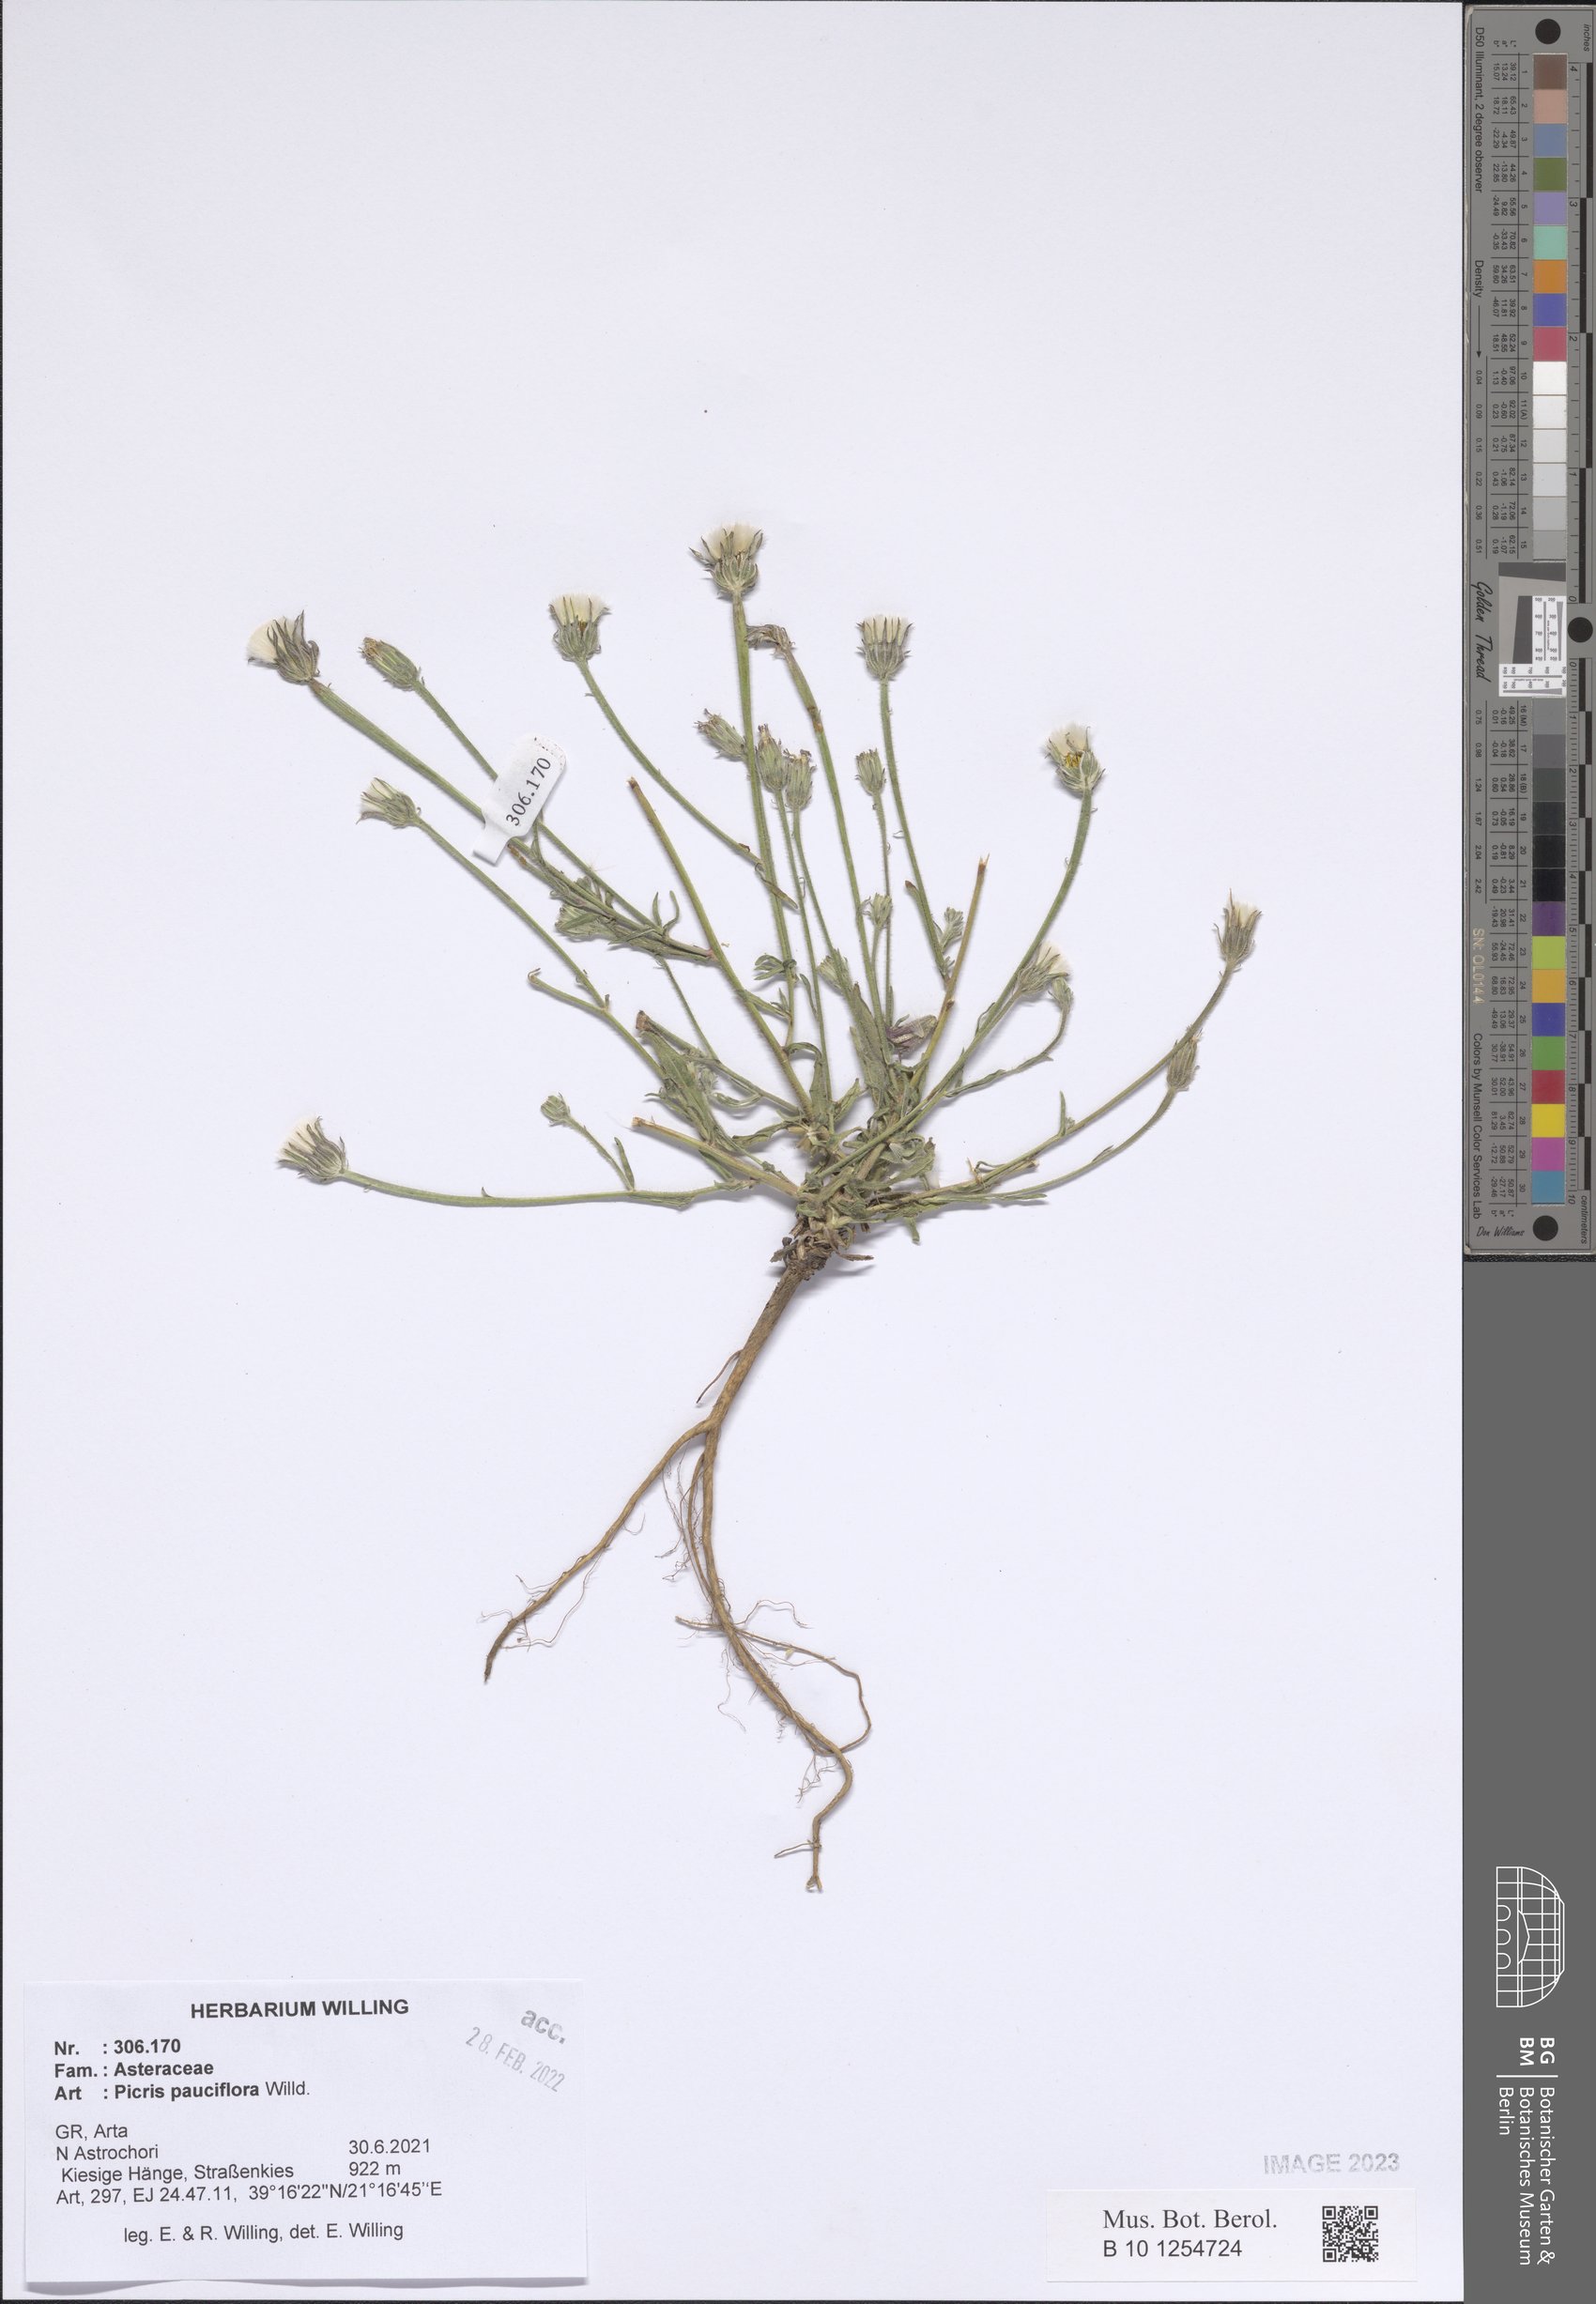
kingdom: Plantae
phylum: Tracheophyta
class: Magnoliopsida
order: Asterales
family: Asteraceae
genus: Picris
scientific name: Picris pauciflora
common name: Smallflower oxtongue
